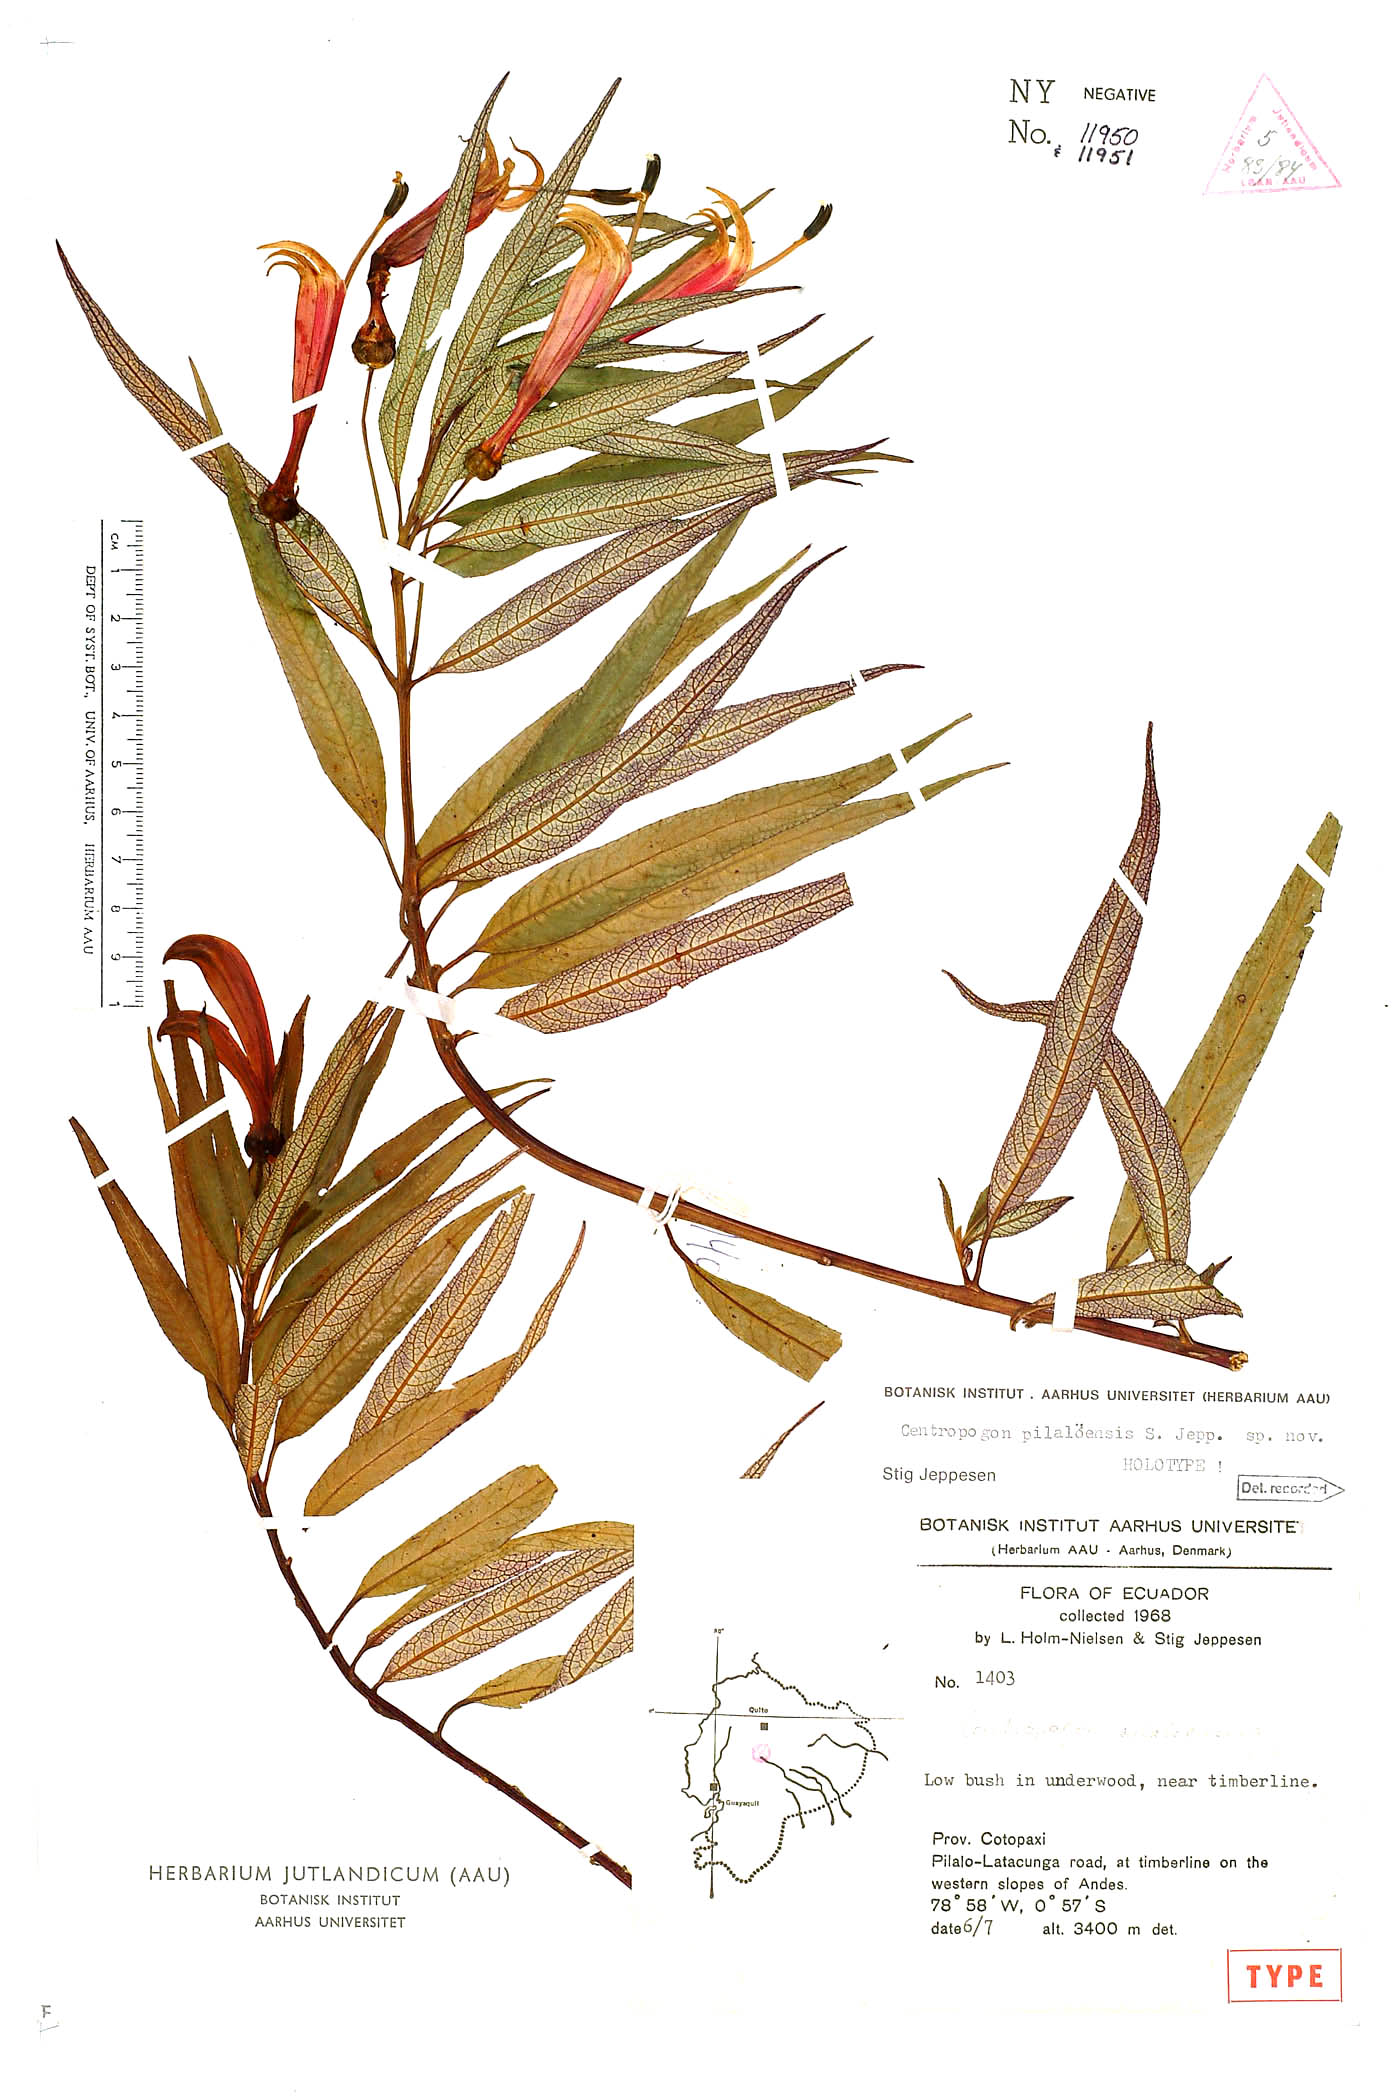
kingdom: Plantae
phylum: Tracheophyta
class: Magnoliopsida
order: Asterales
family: Campanulaceae
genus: Centropogon
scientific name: Centropogon pilalensis
